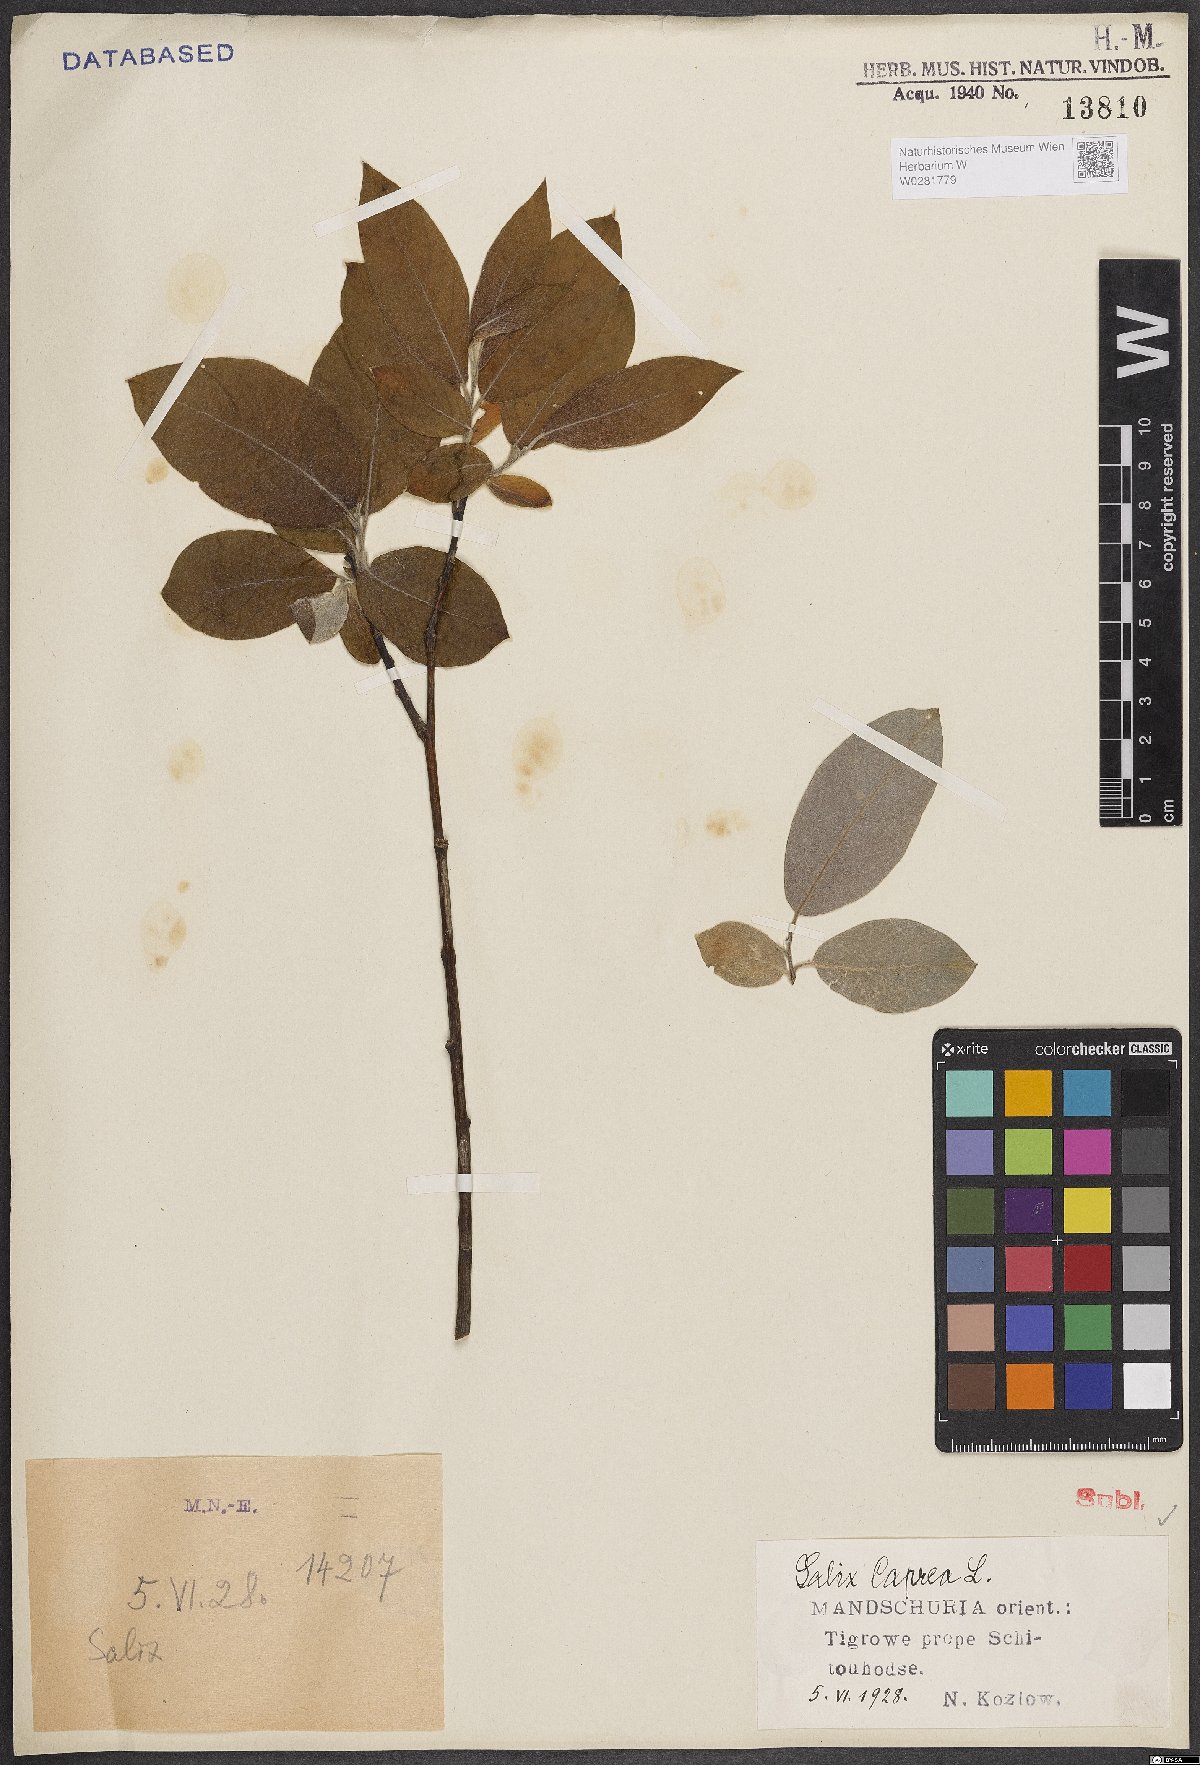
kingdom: Plantae
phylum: Tracheophyta
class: Magnoliopsida
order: Malpighiales
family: Salicaceae
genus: Salix
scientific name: Salix caprea
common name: Goat willow
